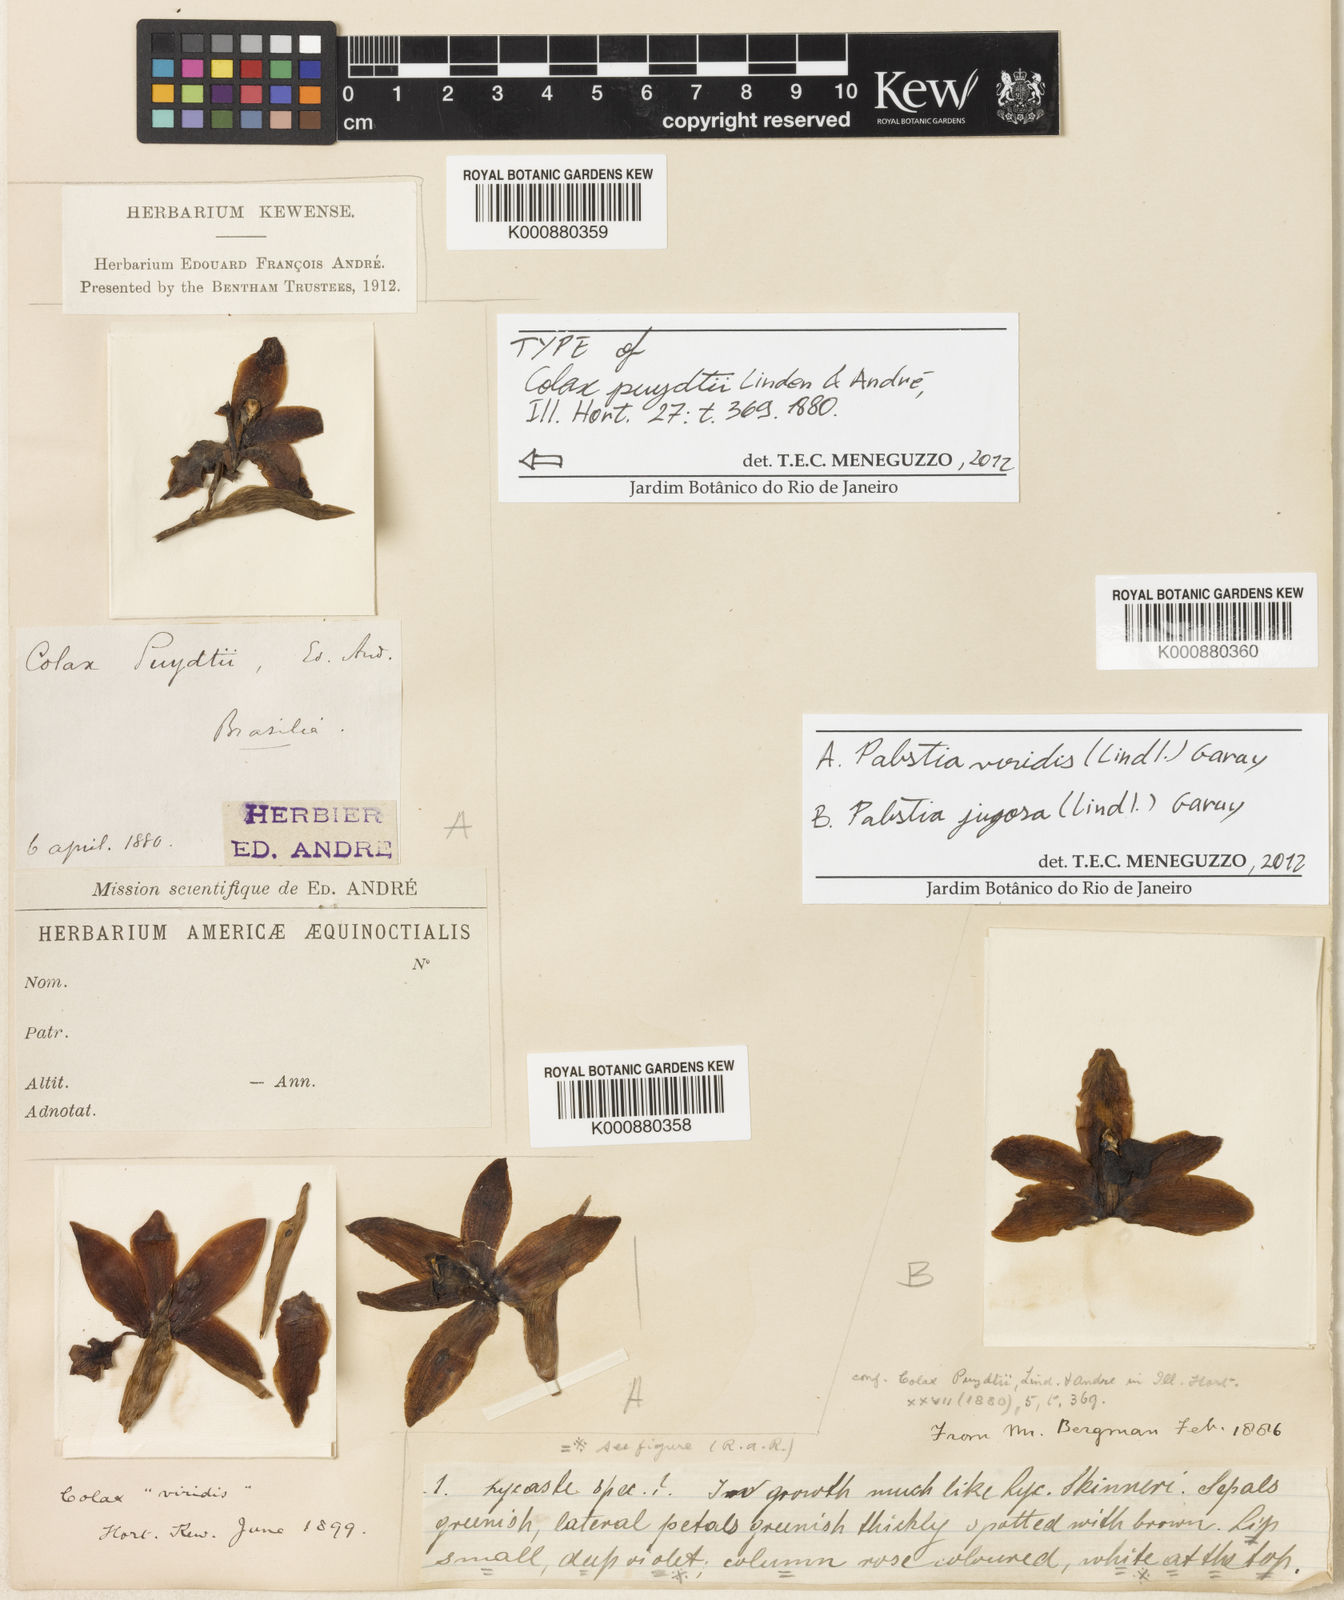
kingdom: Plantae
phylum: Tracheophyta
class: Liliopsida
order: Asparagales
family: Orchidaceae
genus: Pabstia
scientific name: Pabstia jugosa
